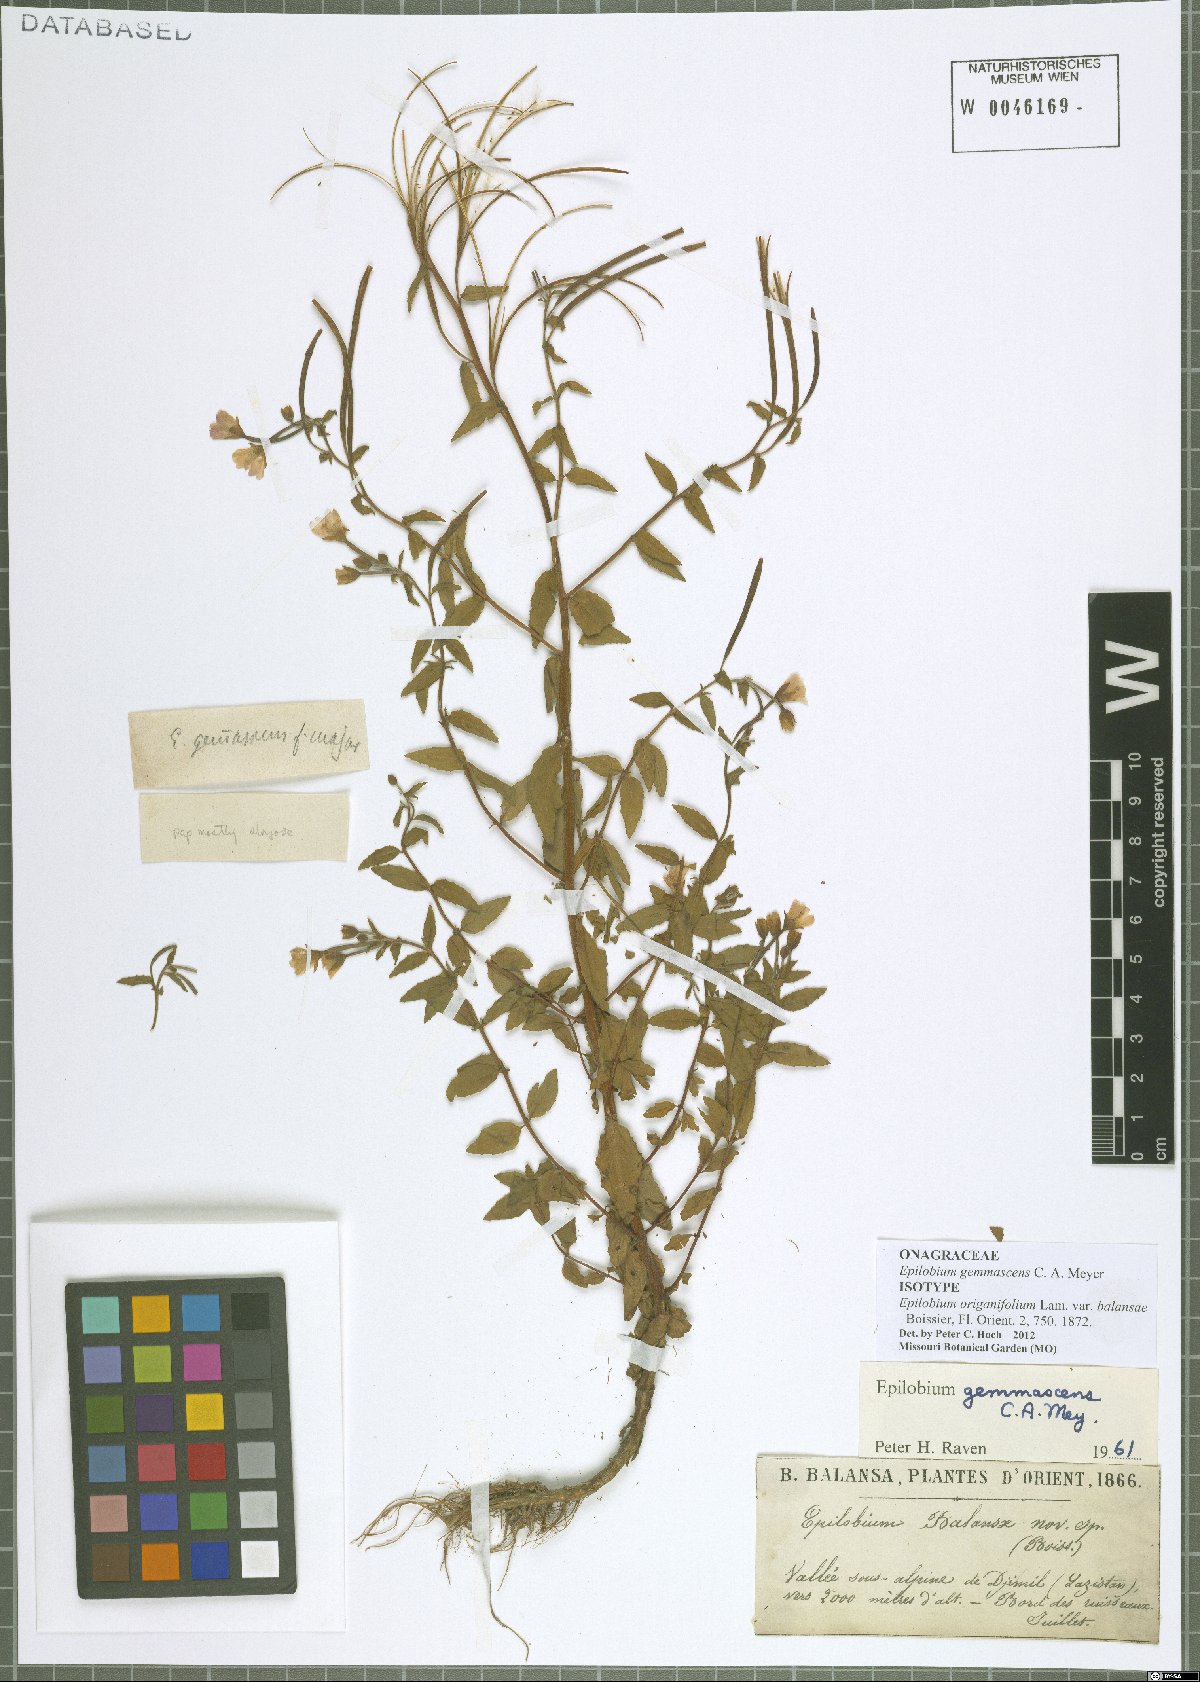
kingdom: Plantae
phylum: Tracheophyta
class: Magnoliopsida
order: Myrtales
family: Onagraceae
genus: Epilobium
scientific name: Epilobium gemmascens
